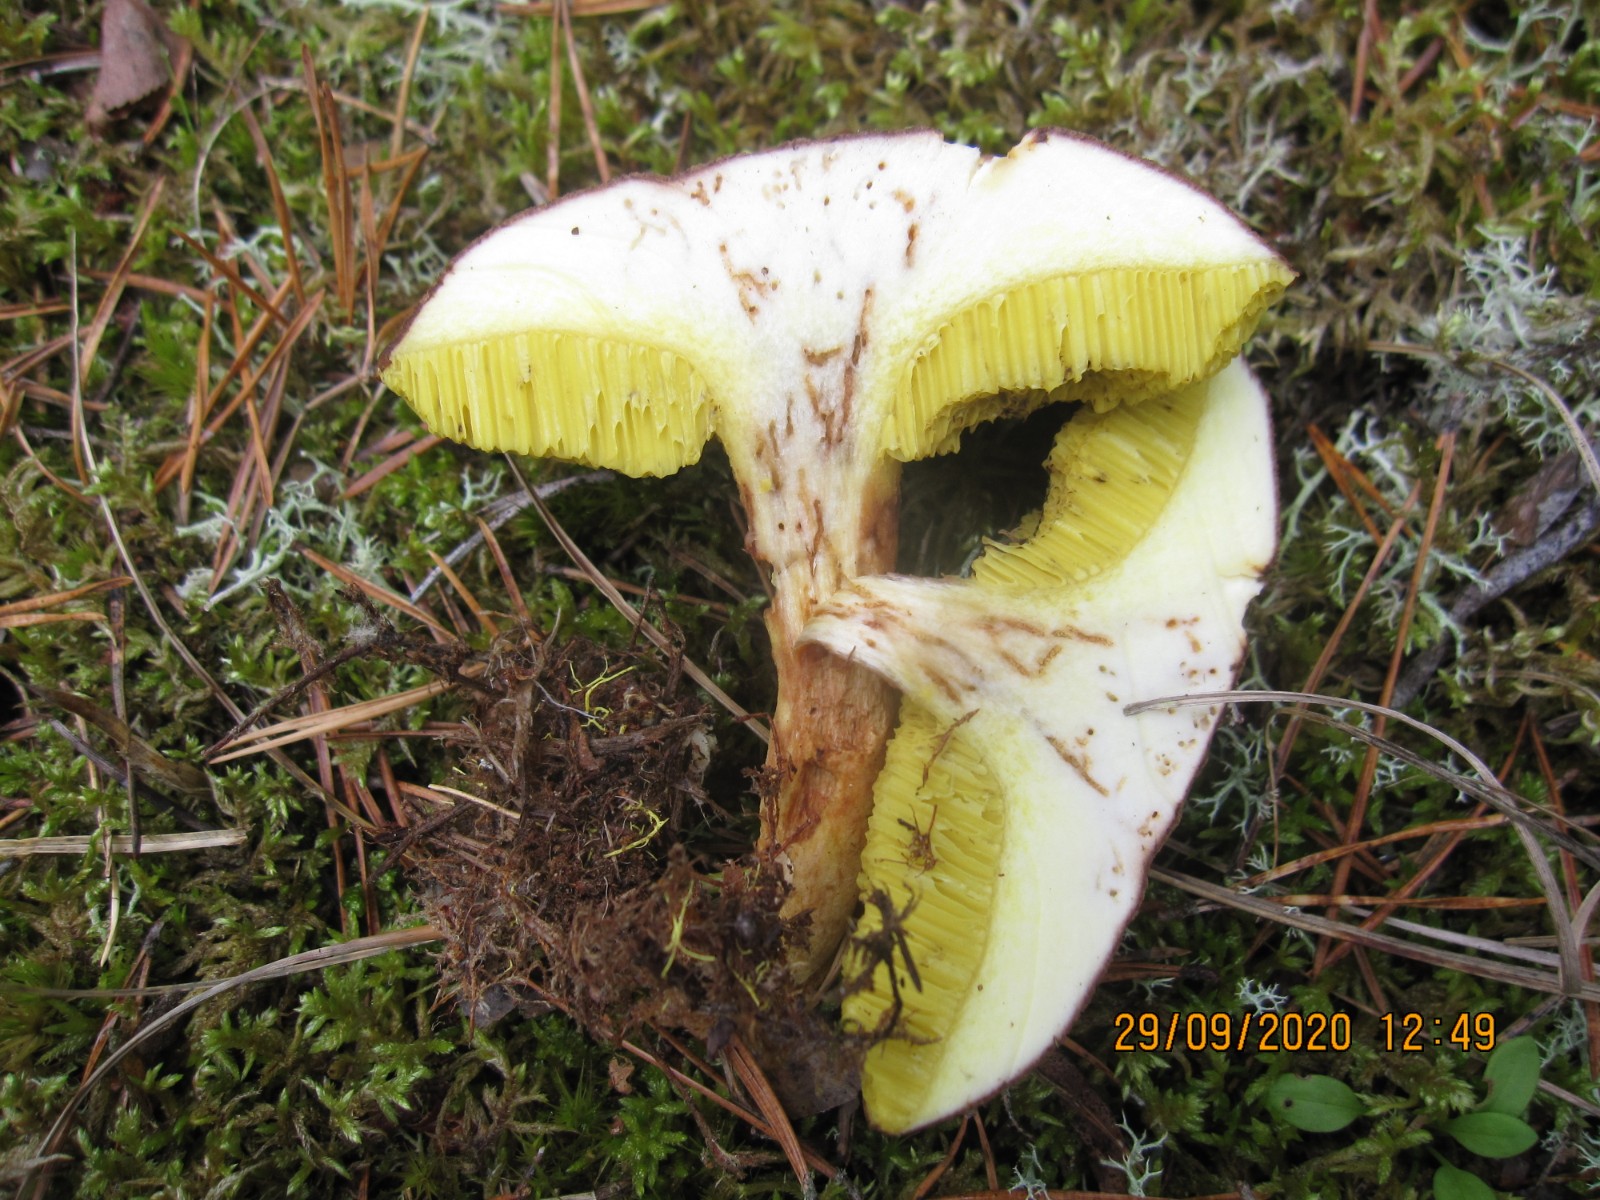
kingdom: Fungi
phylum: Basidiomycota
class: Agaricomycetes
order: Boletales
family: Boletaceae
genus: Xerocomus
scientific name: Xerocomus ferrugineus
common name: vaskeskinds-rørhat
